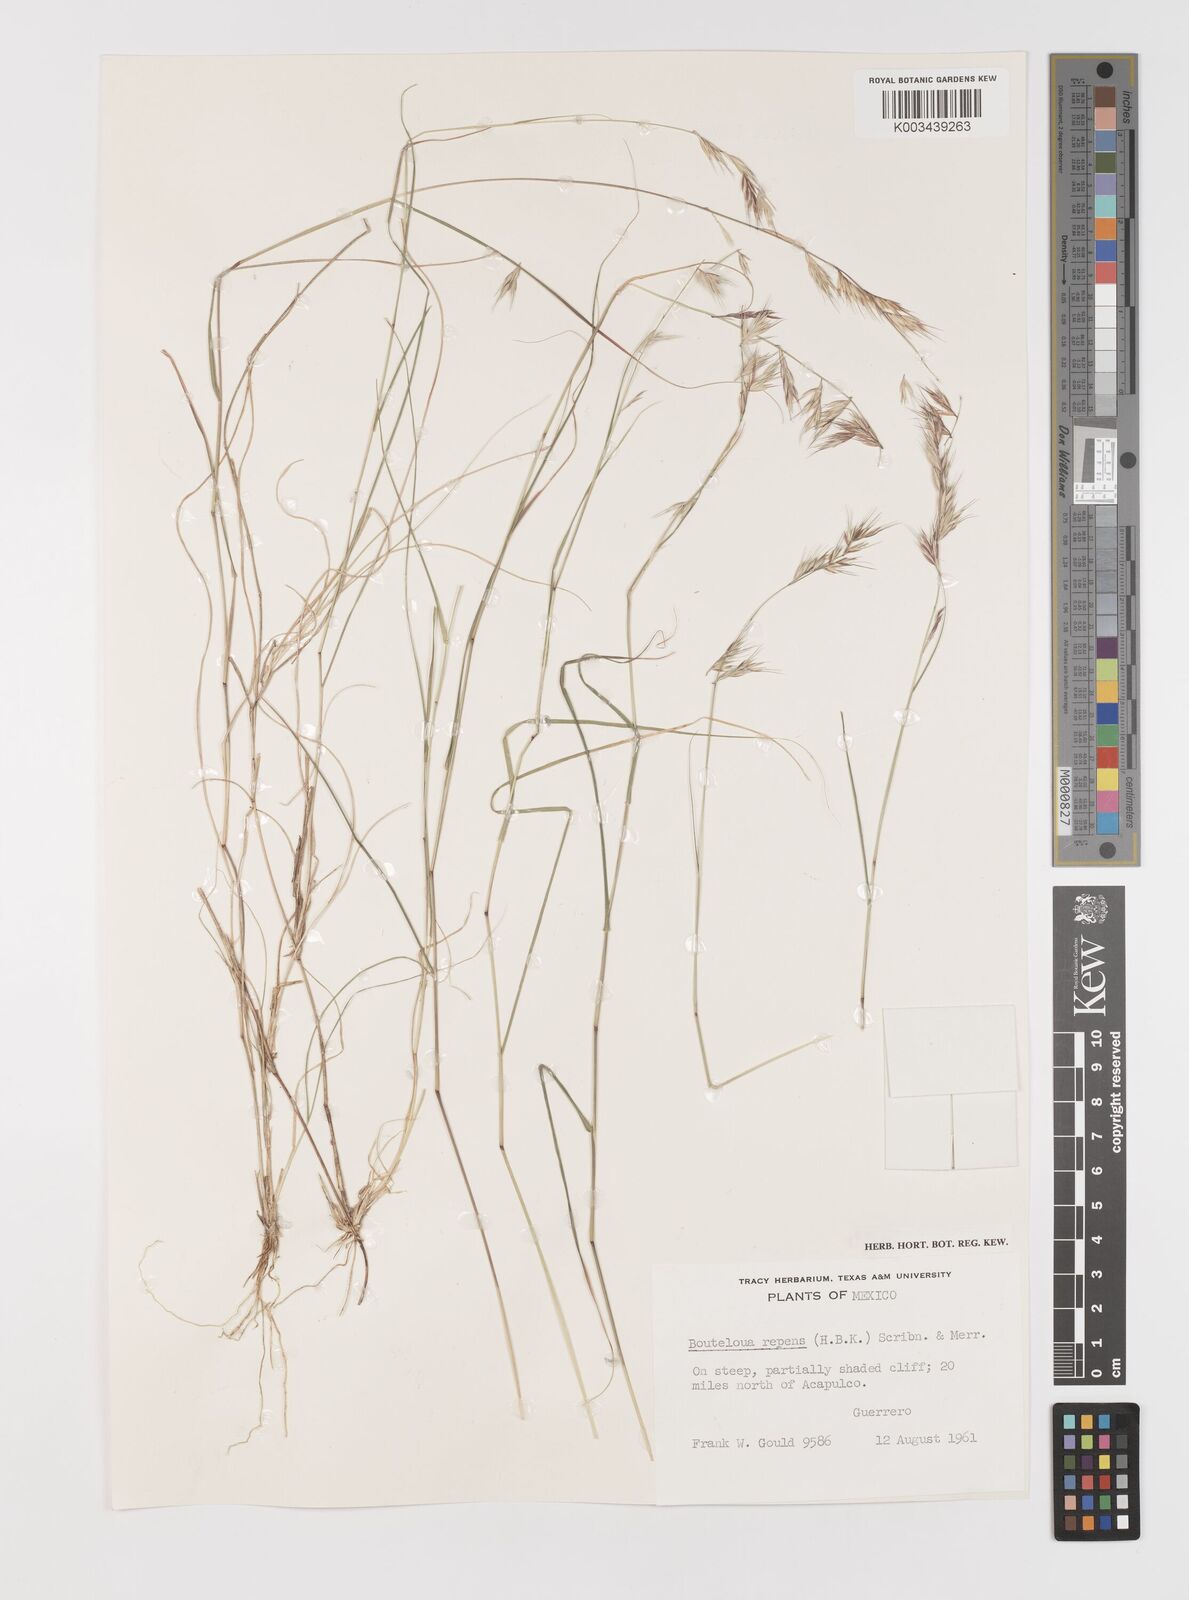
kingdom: Plantae
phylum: Tracheophyta
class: Liliopsida
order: Poales
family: Poaceae
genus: Bouteloua
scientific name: Bouteloua repens
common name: Slender grama
